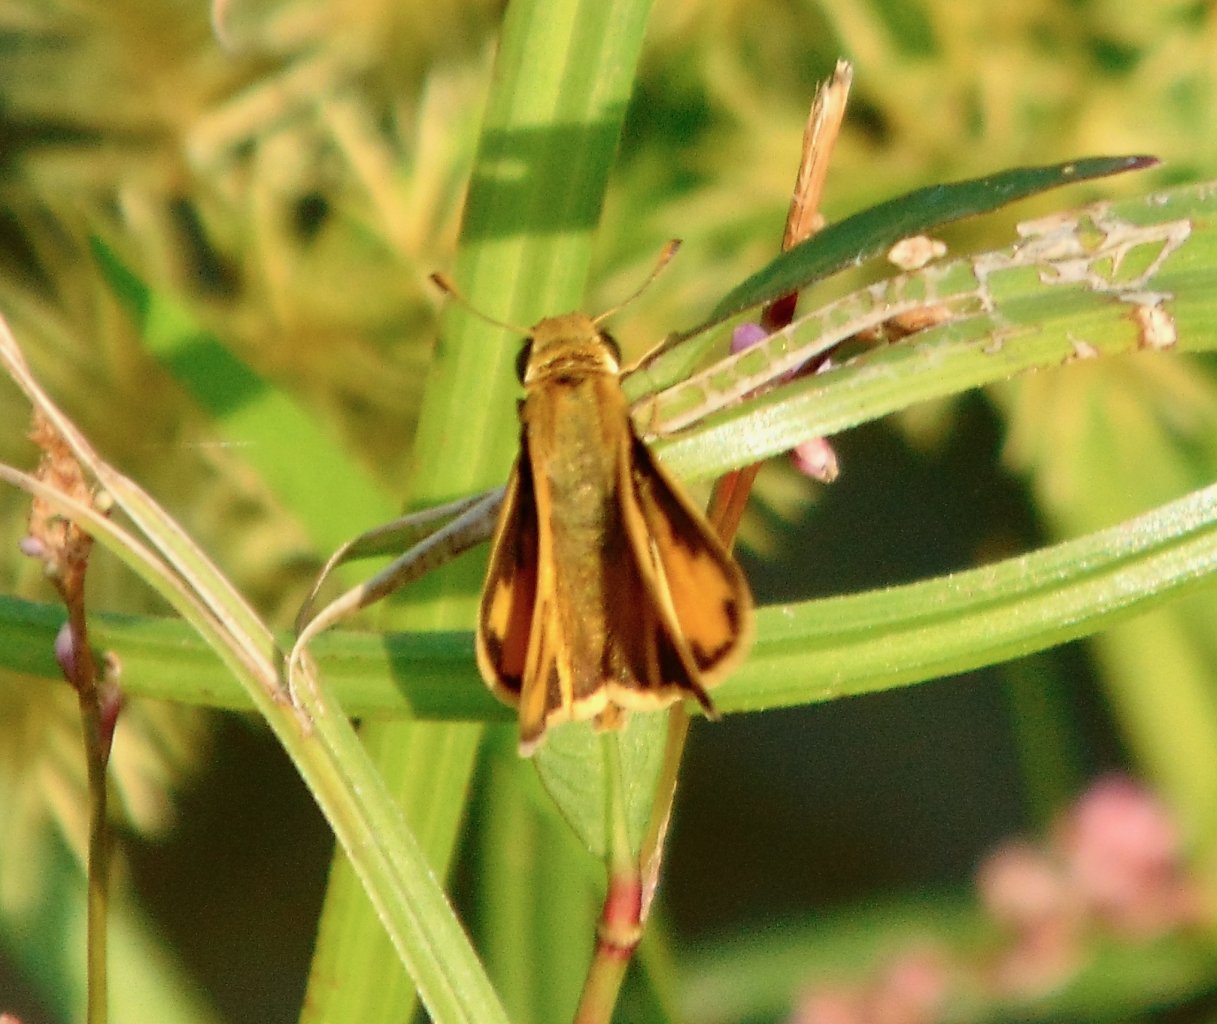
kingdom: Animalia
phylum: Arthropoda
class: Insecta
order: Lepidoptera
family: Hesperiidae
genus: Hylephila
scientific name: Hylephila phyleus
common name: Fiery Skipper
